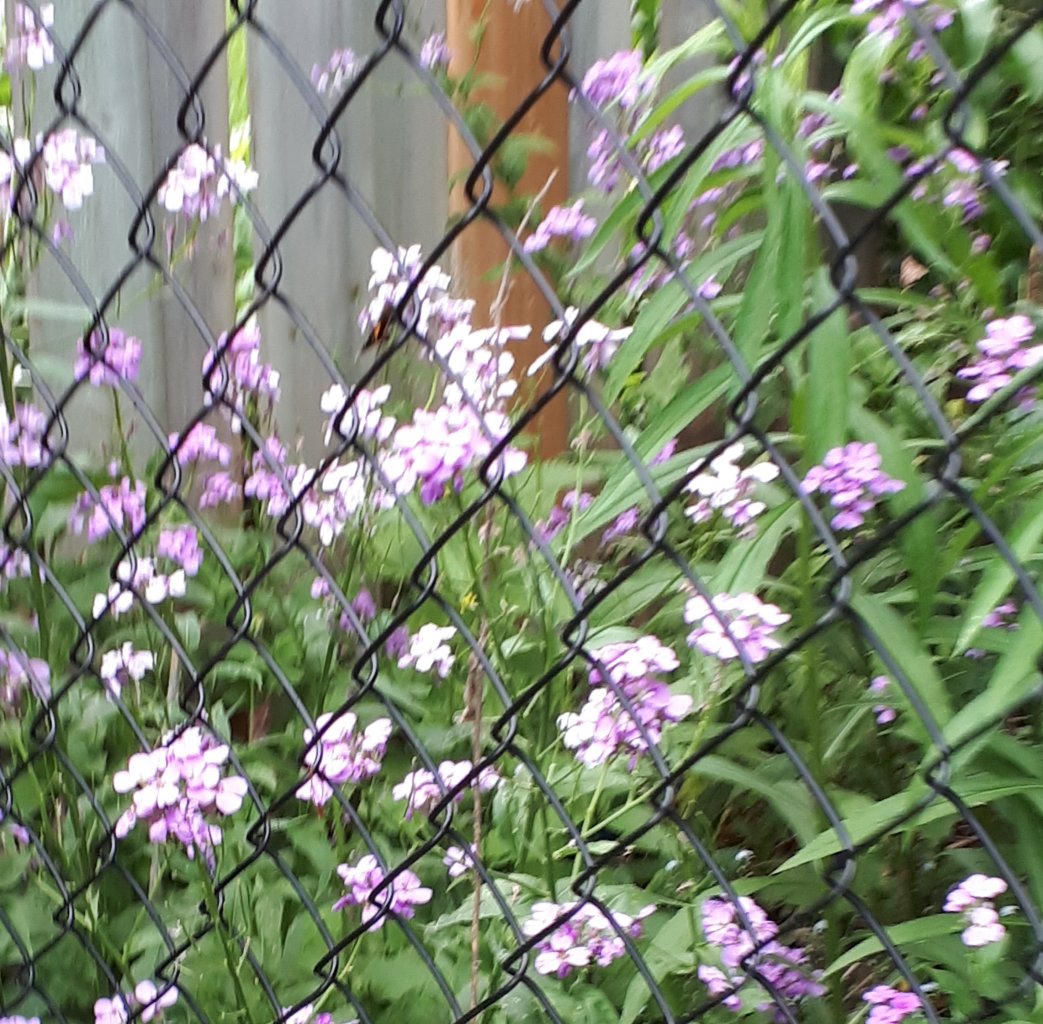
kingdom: Animalia
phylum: Arthropoda
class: Insecta
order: Lepidoptera
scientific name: Lepidoptera
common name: Butterflies
